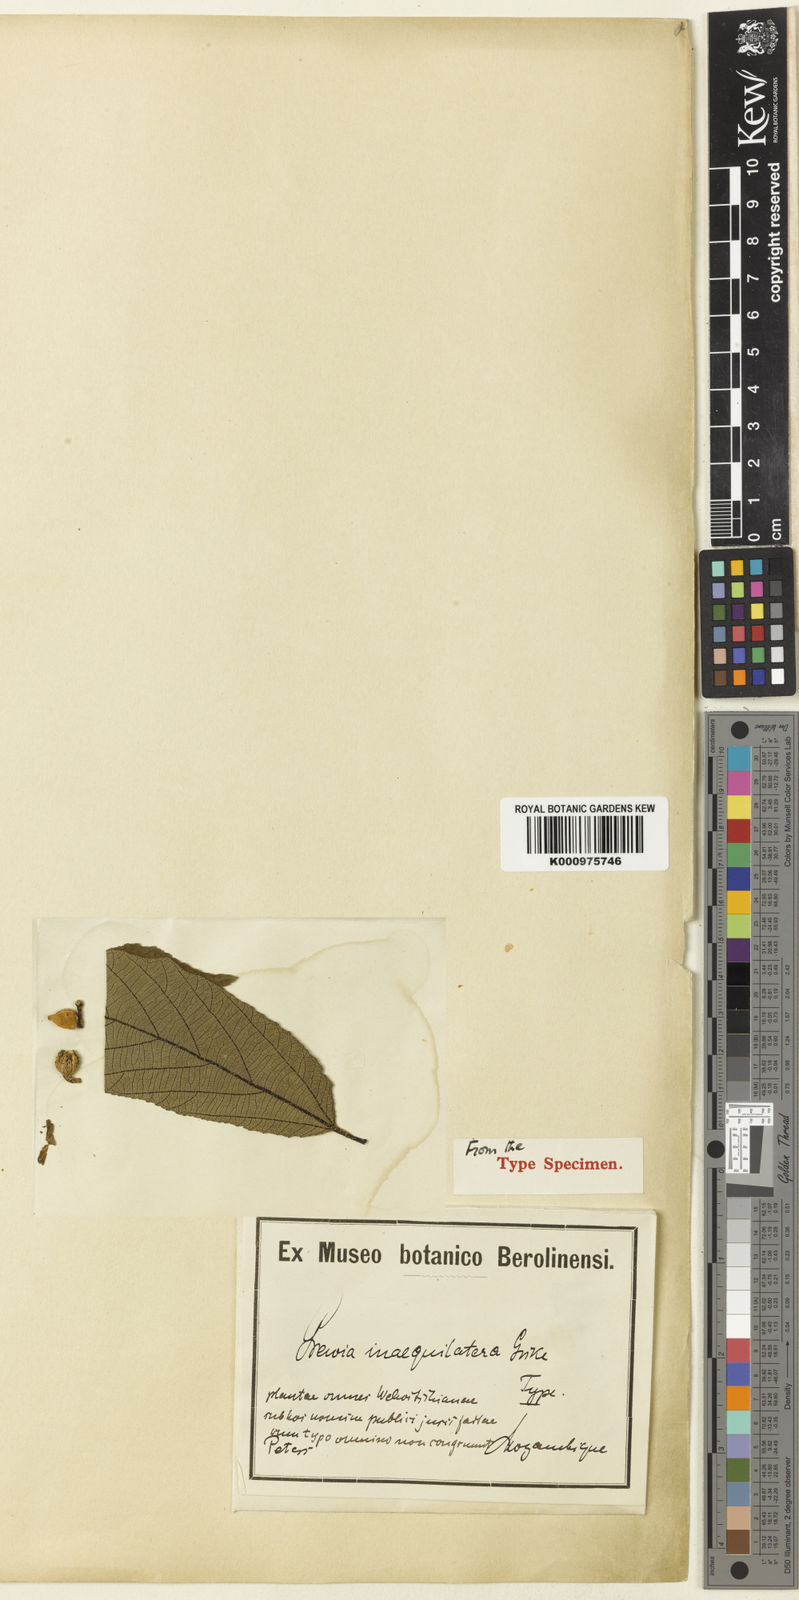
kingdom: Plantae
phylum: Tracheophyta
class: Magnoliopsida
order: Malvales
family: Malvaceae
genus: Grewia
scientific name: Grewia inaequilatera
